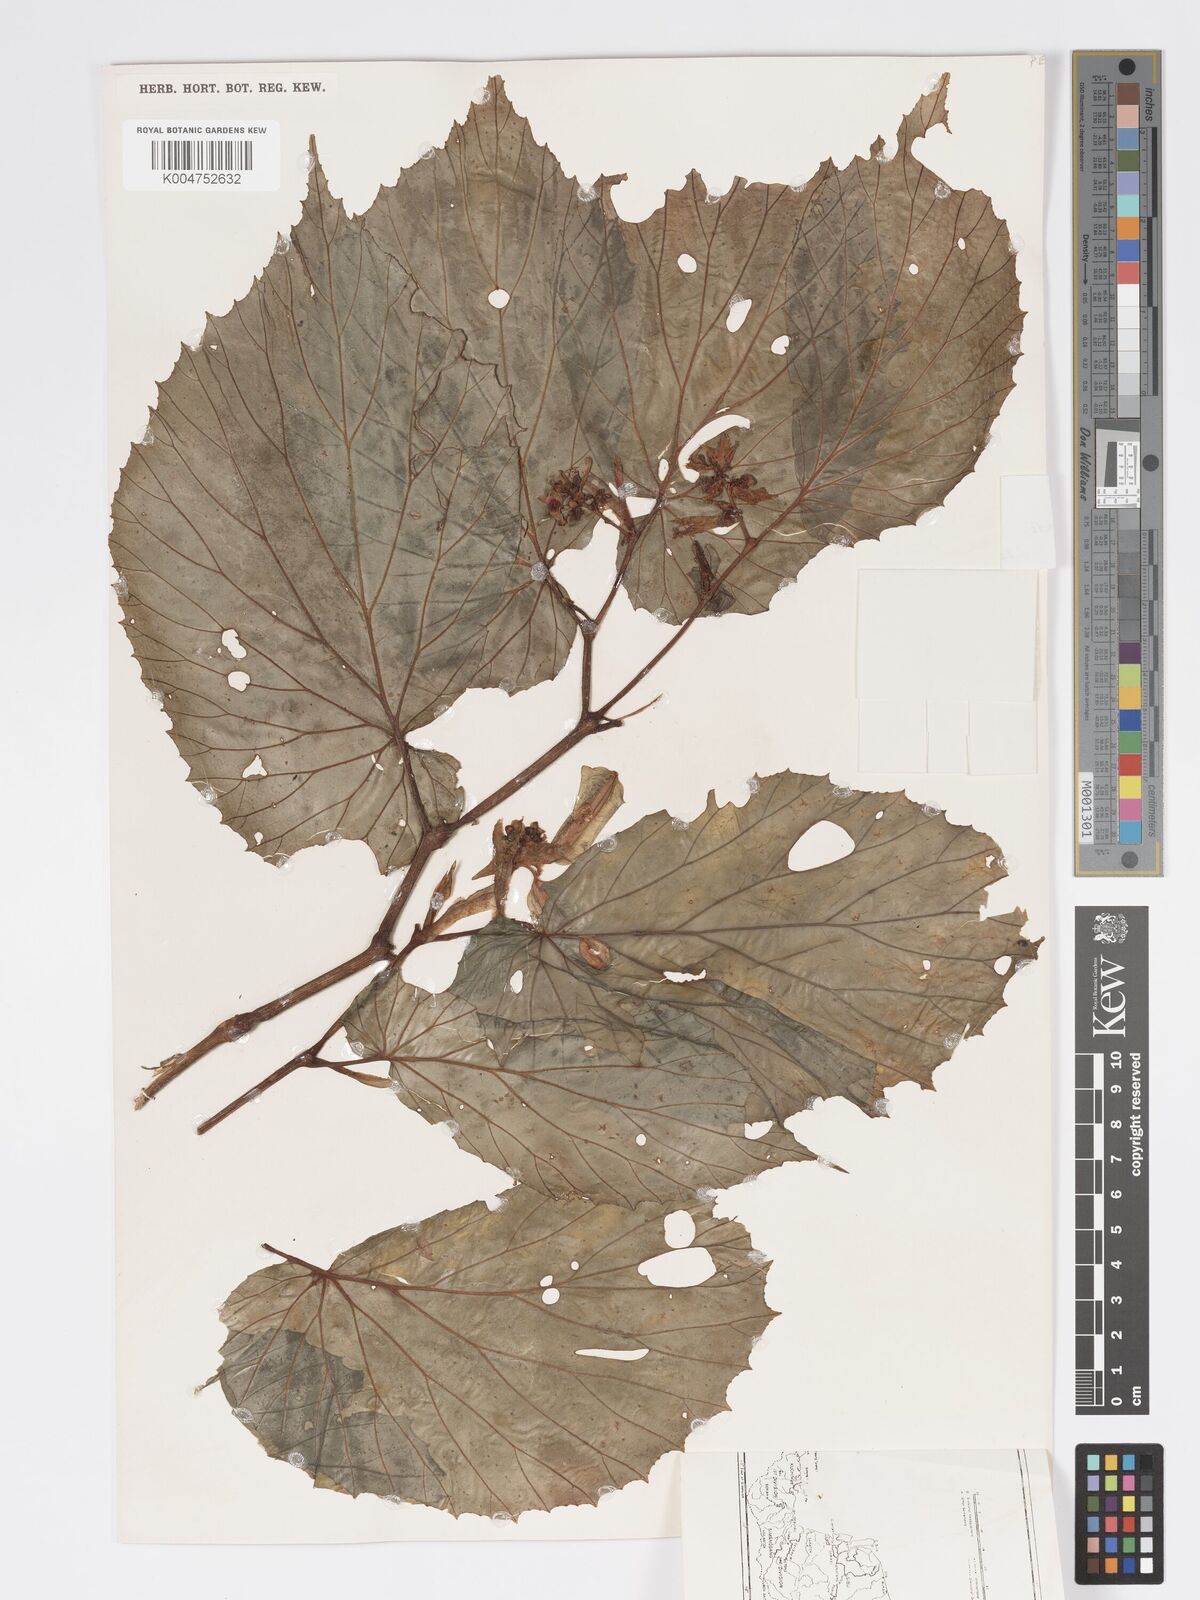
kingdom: Plantae
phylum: Tracheophyta
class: Magnoliopsida
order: Cucurbitales
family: Begoniaceae
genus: Begonia
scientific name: Begonia stenogyna
